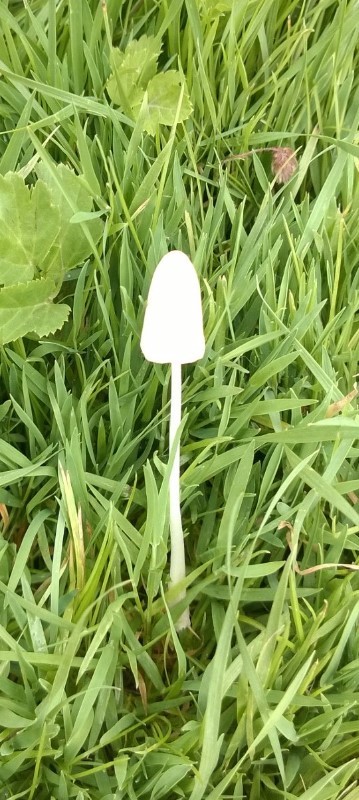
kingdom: Fungi
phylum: Basidiomycota
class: Agaricomycetes
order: Agaricales
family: Bolbitiaceae
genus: Conocybe
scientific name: Conocybe apala
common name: mælkehvid keglehat
